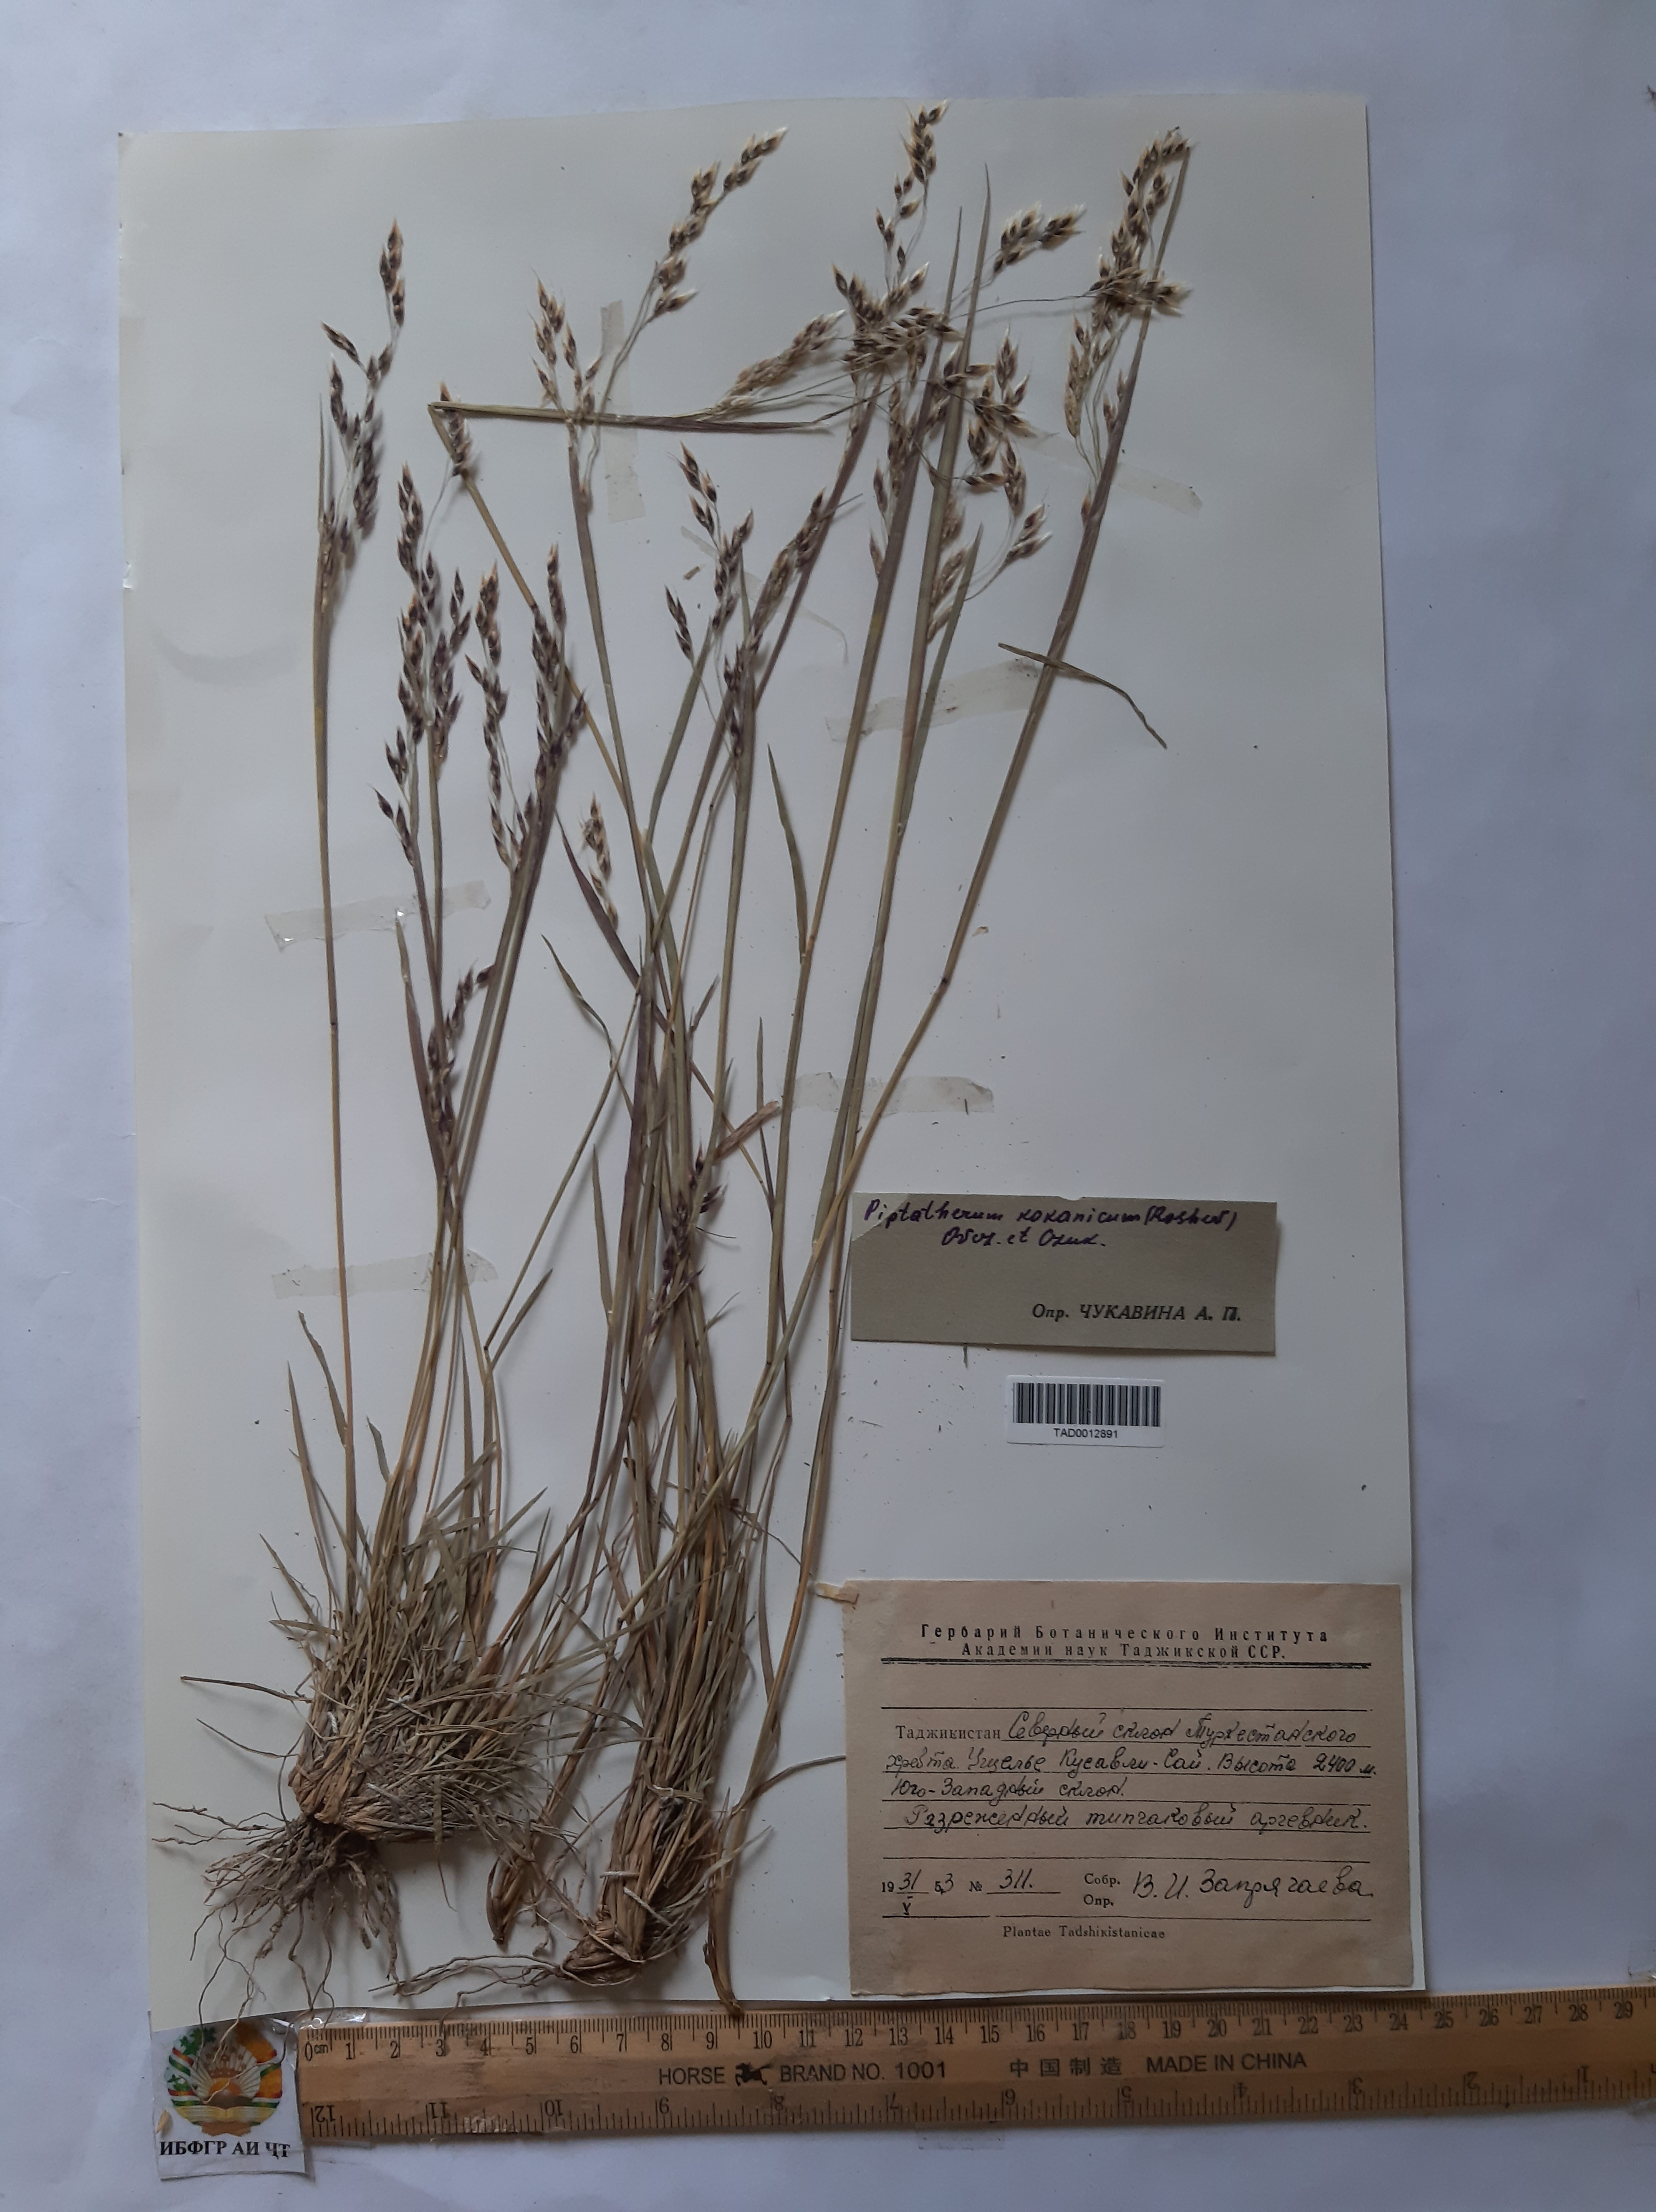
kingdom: Plantae
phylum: Tracheophyta
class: Liliopsida
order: Poales
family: Poaceae
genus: Piptatherum
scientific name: Piptatherum songaricum
